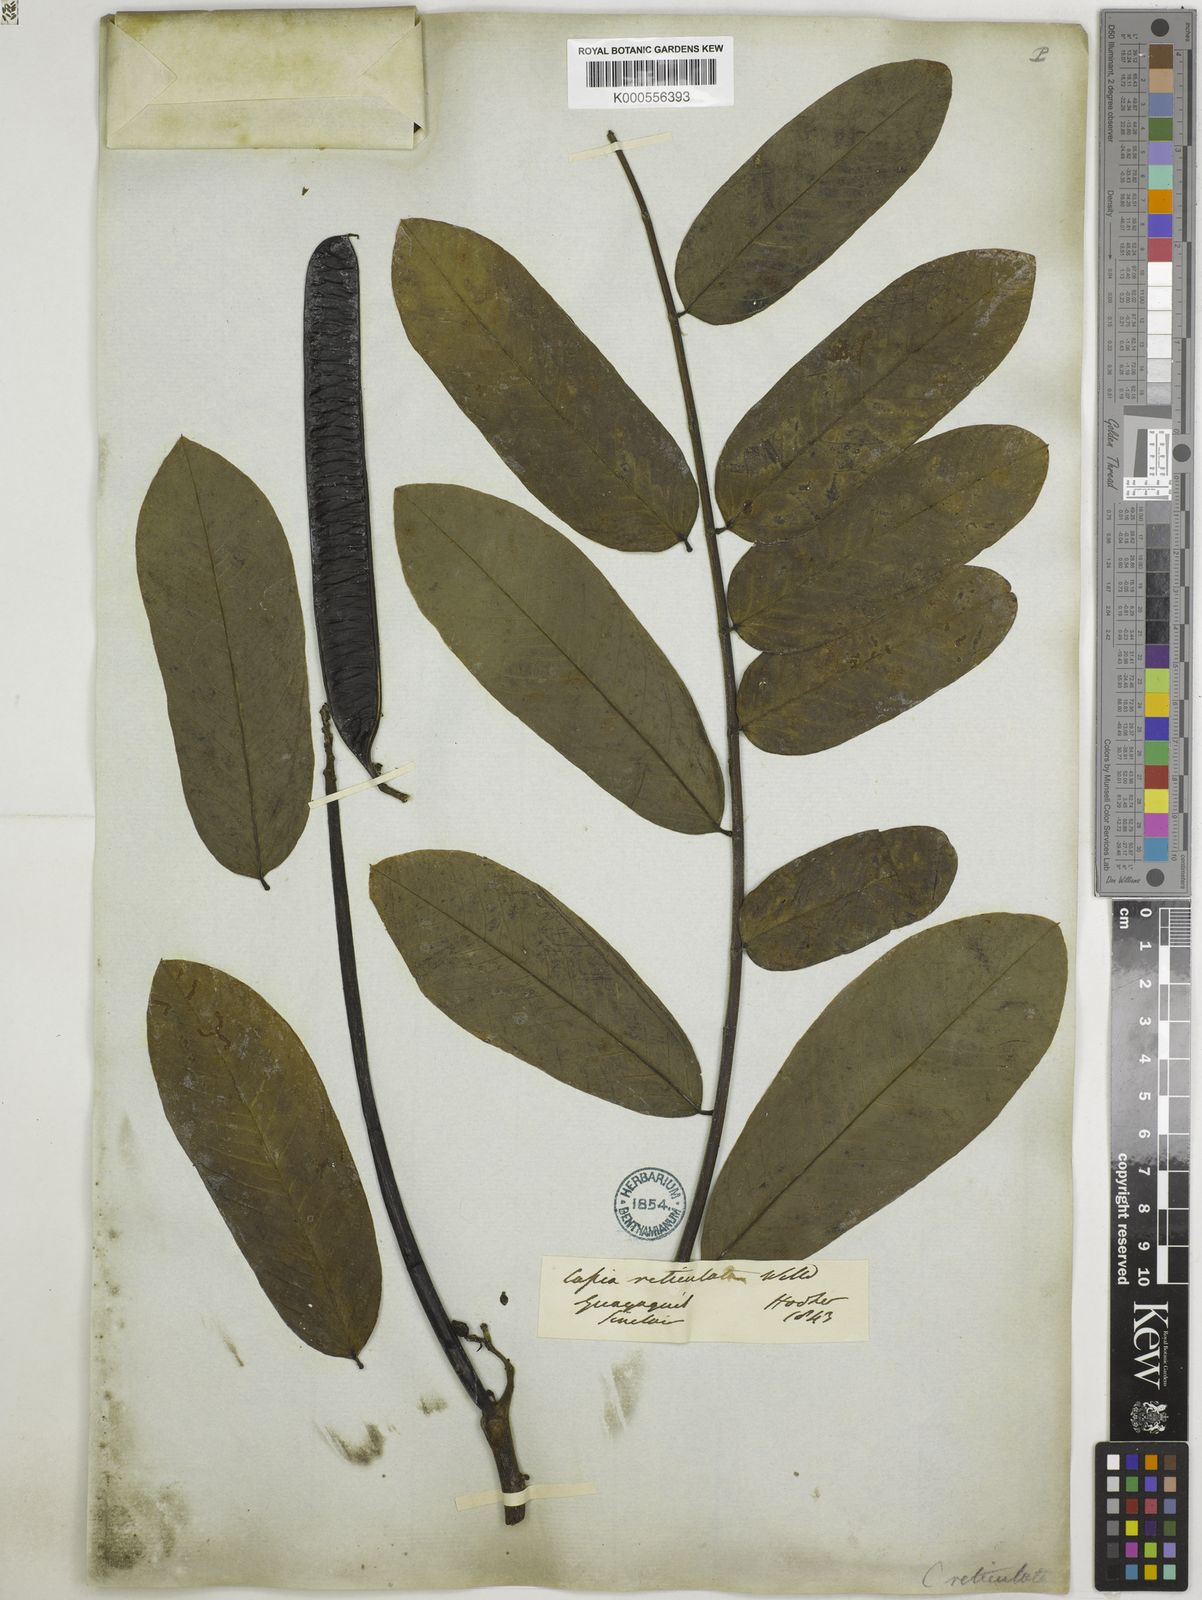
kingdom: Plantae
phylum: Tracheophyta
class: Magnoliopsida
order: Fabales
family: Fabaceae
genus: Senna
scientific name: Senna reticulata
